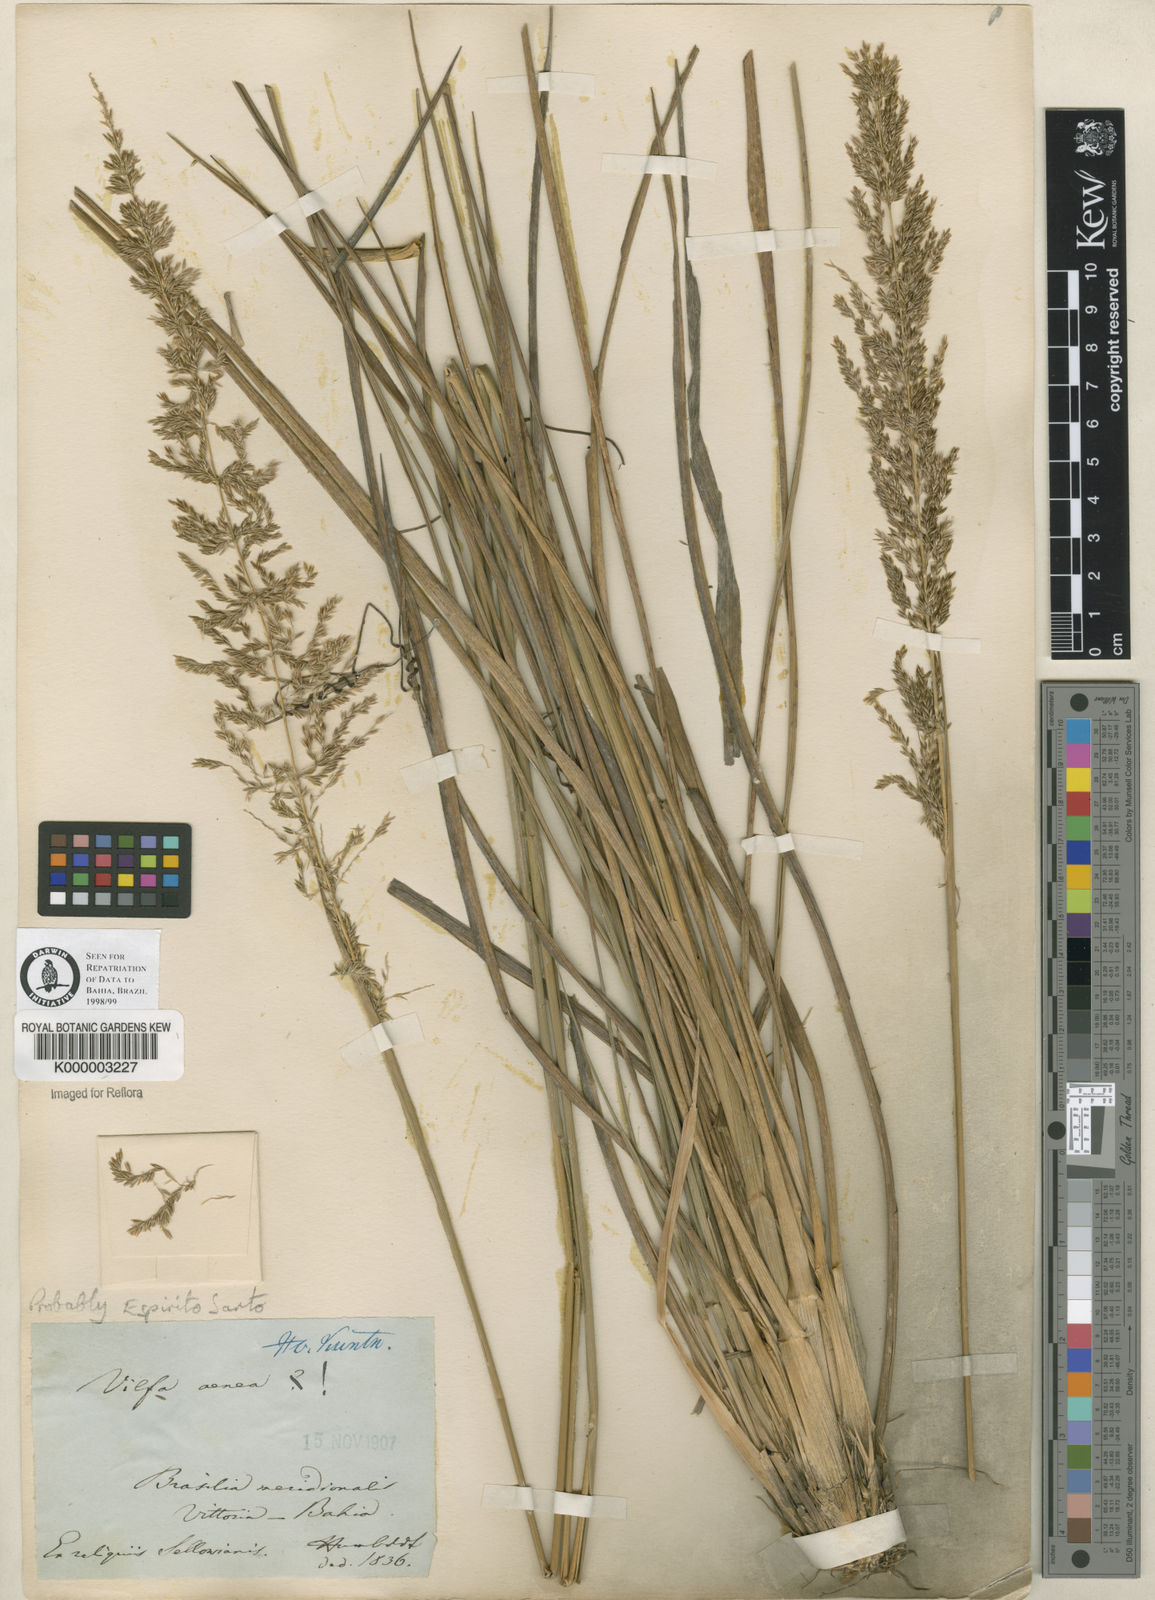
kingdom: Plantae
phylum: Tracheophyta
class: Liliopsida
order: Poales
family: Poaceae
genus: Sporobolus
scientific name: Sporobolus aeneus
